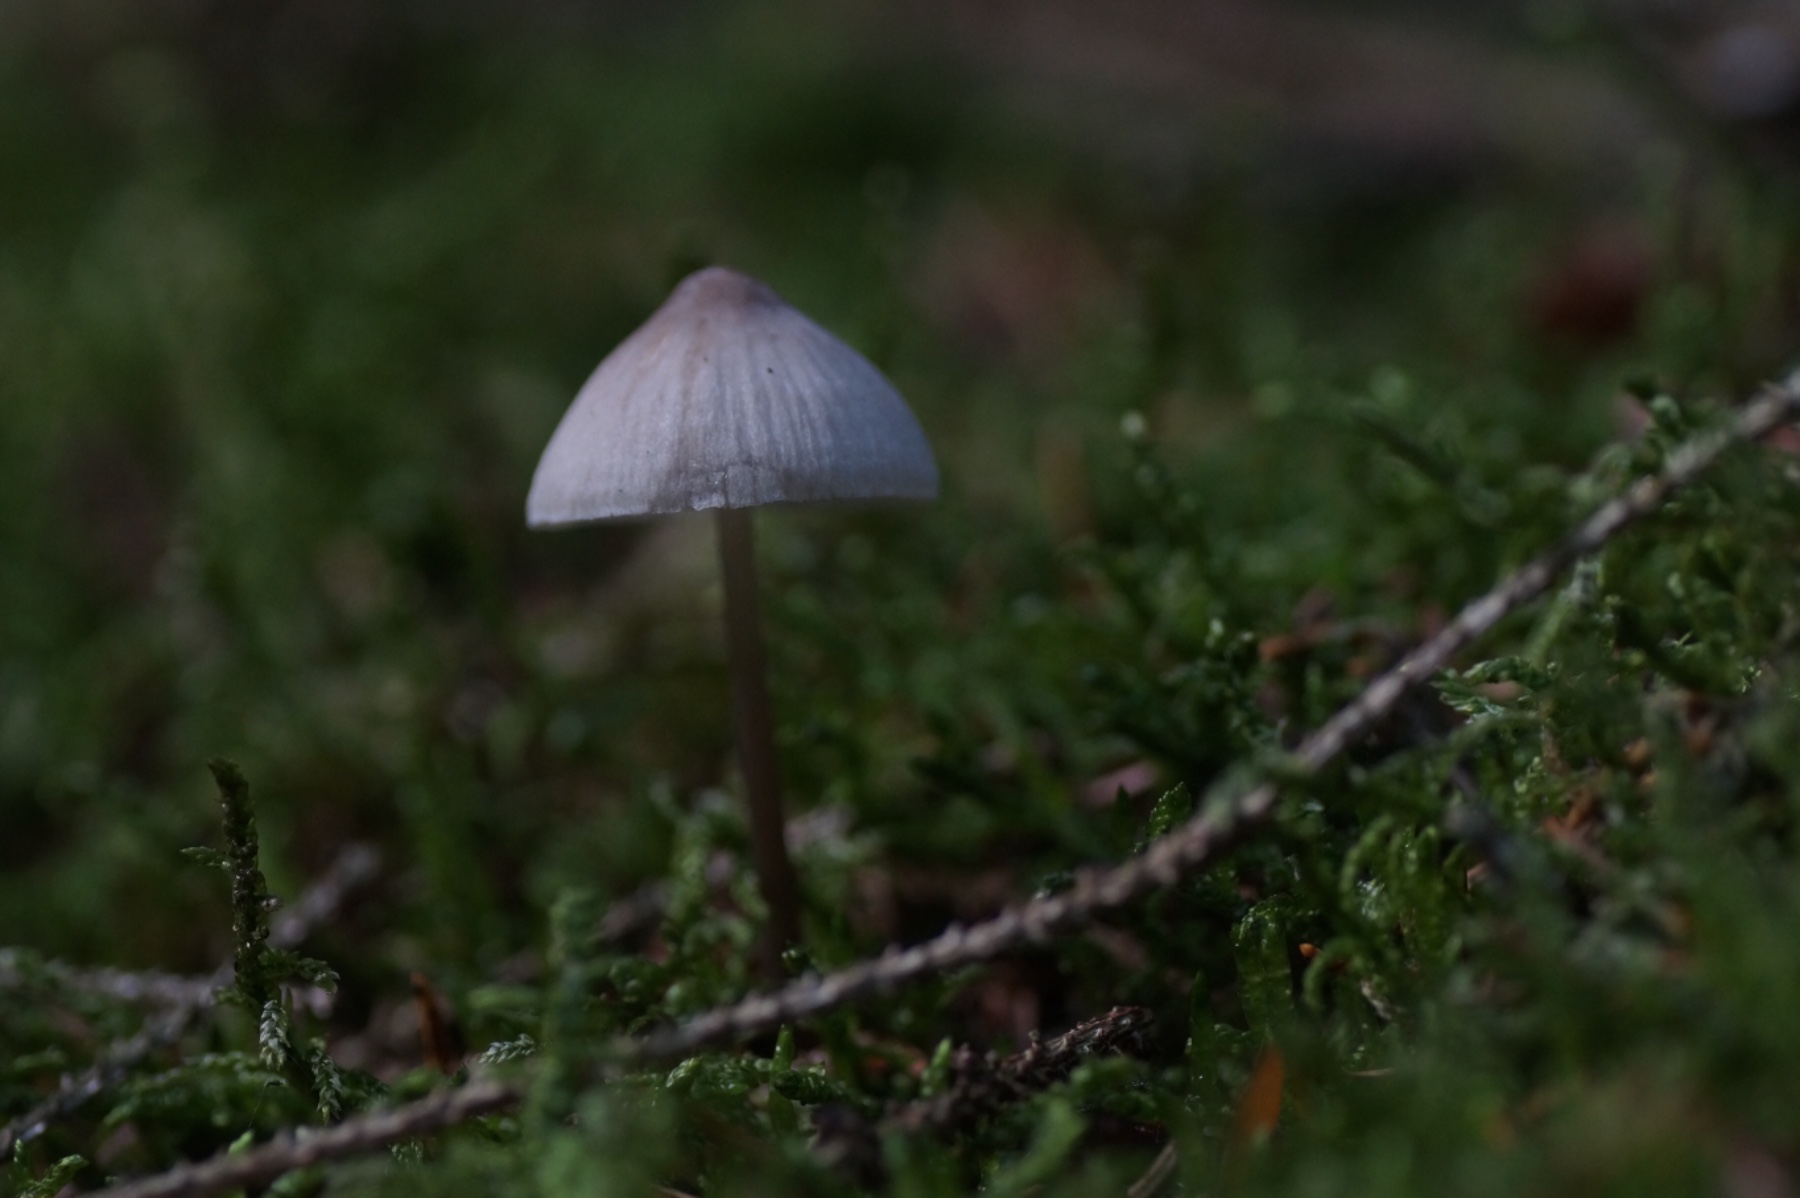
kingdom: Fungi
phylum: Basidiomycota
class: Agaricomycetes
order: Agaricales
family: Mycenaceae
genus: Mycena
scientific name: Mycena
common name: huesvamp
